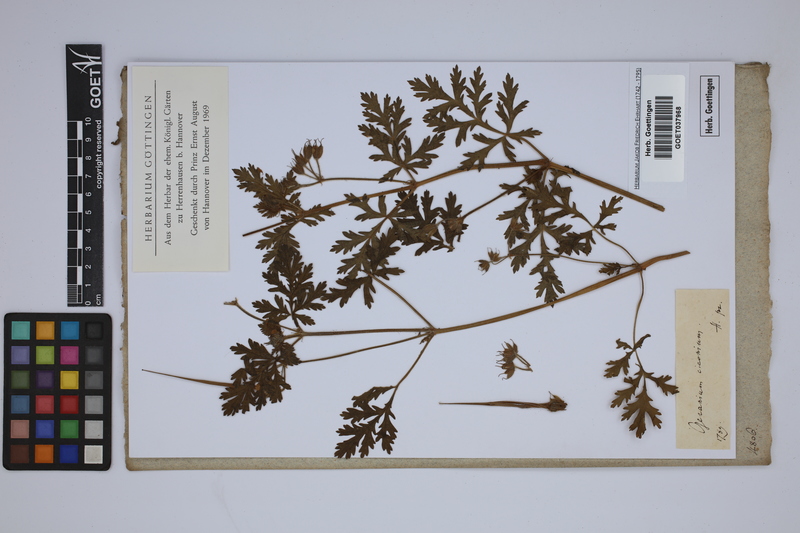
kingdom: Plantae
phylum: Tracheophyta
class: Magnoliopsida
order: Geraniales
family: Geraniaceae
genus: Erodium
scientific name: Erodium ciconium
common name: Common stork's bill
